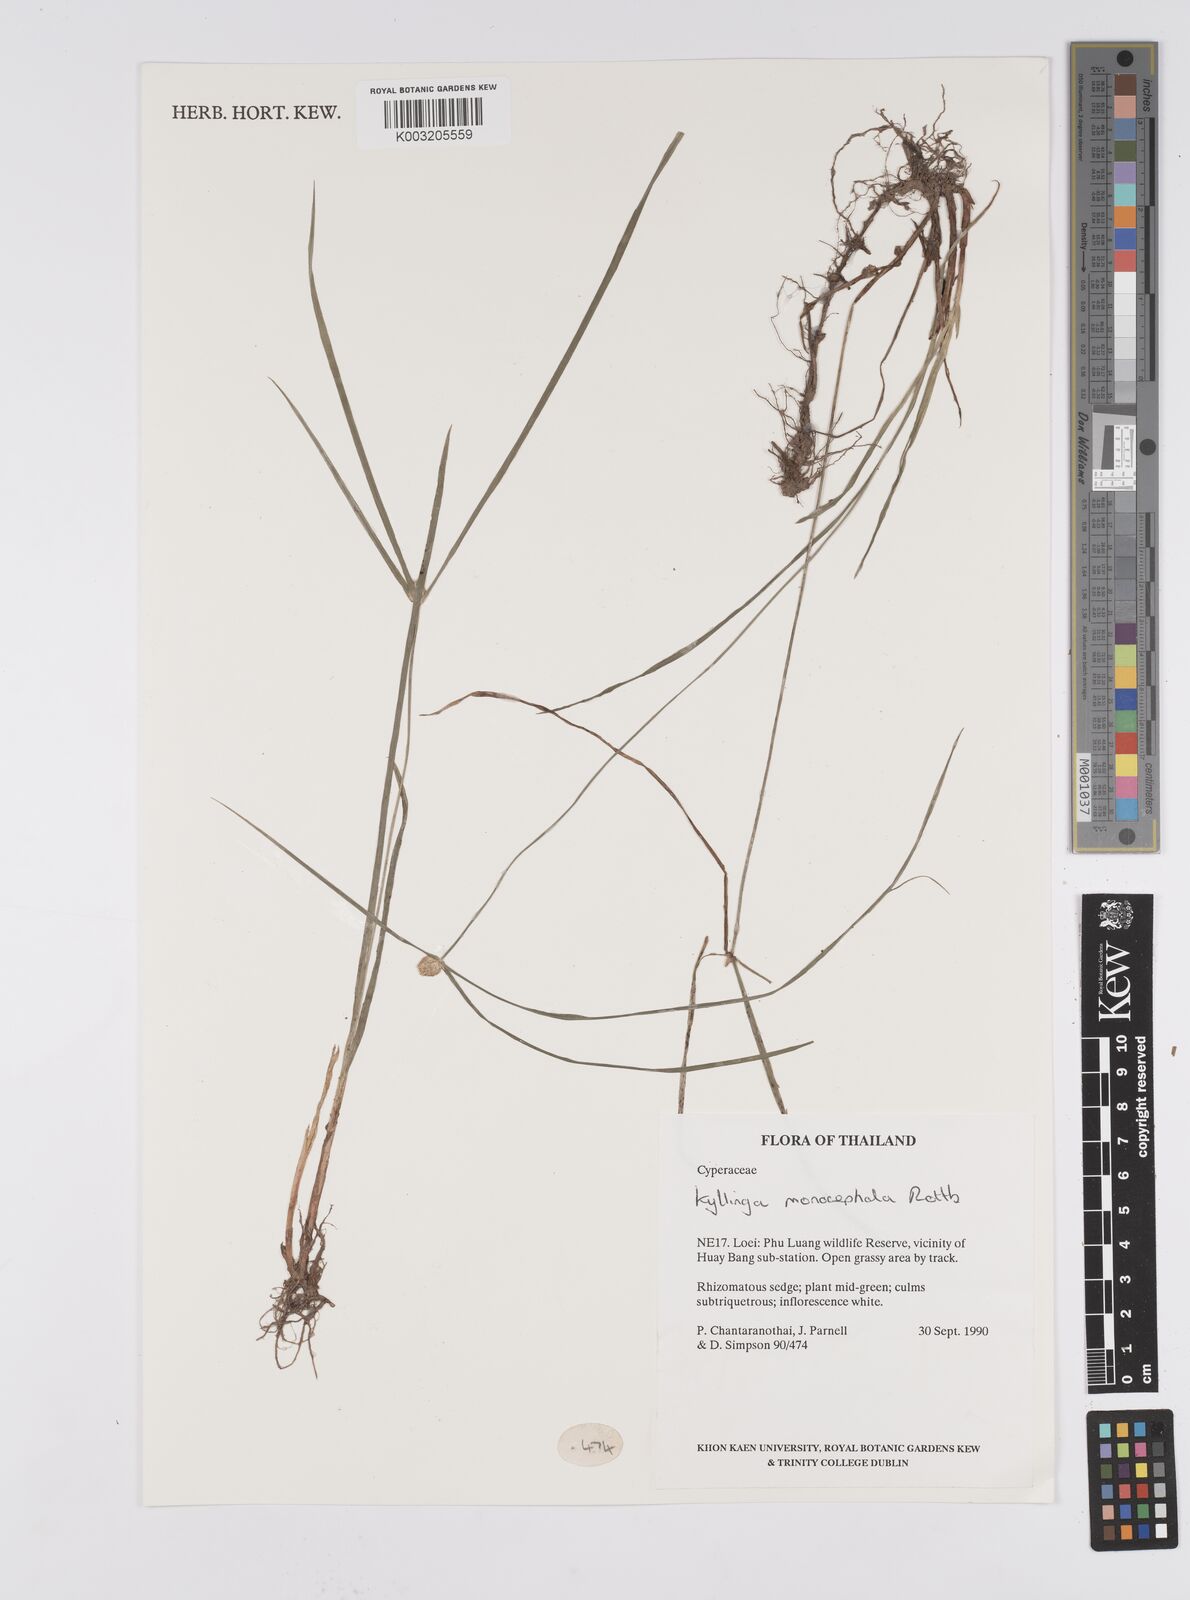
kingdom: Plantae
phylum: Tracheophyta
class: Liliopsida
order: Poales
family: Cyperaceae
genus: Cyperus
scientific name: Cyperus nemoralis
